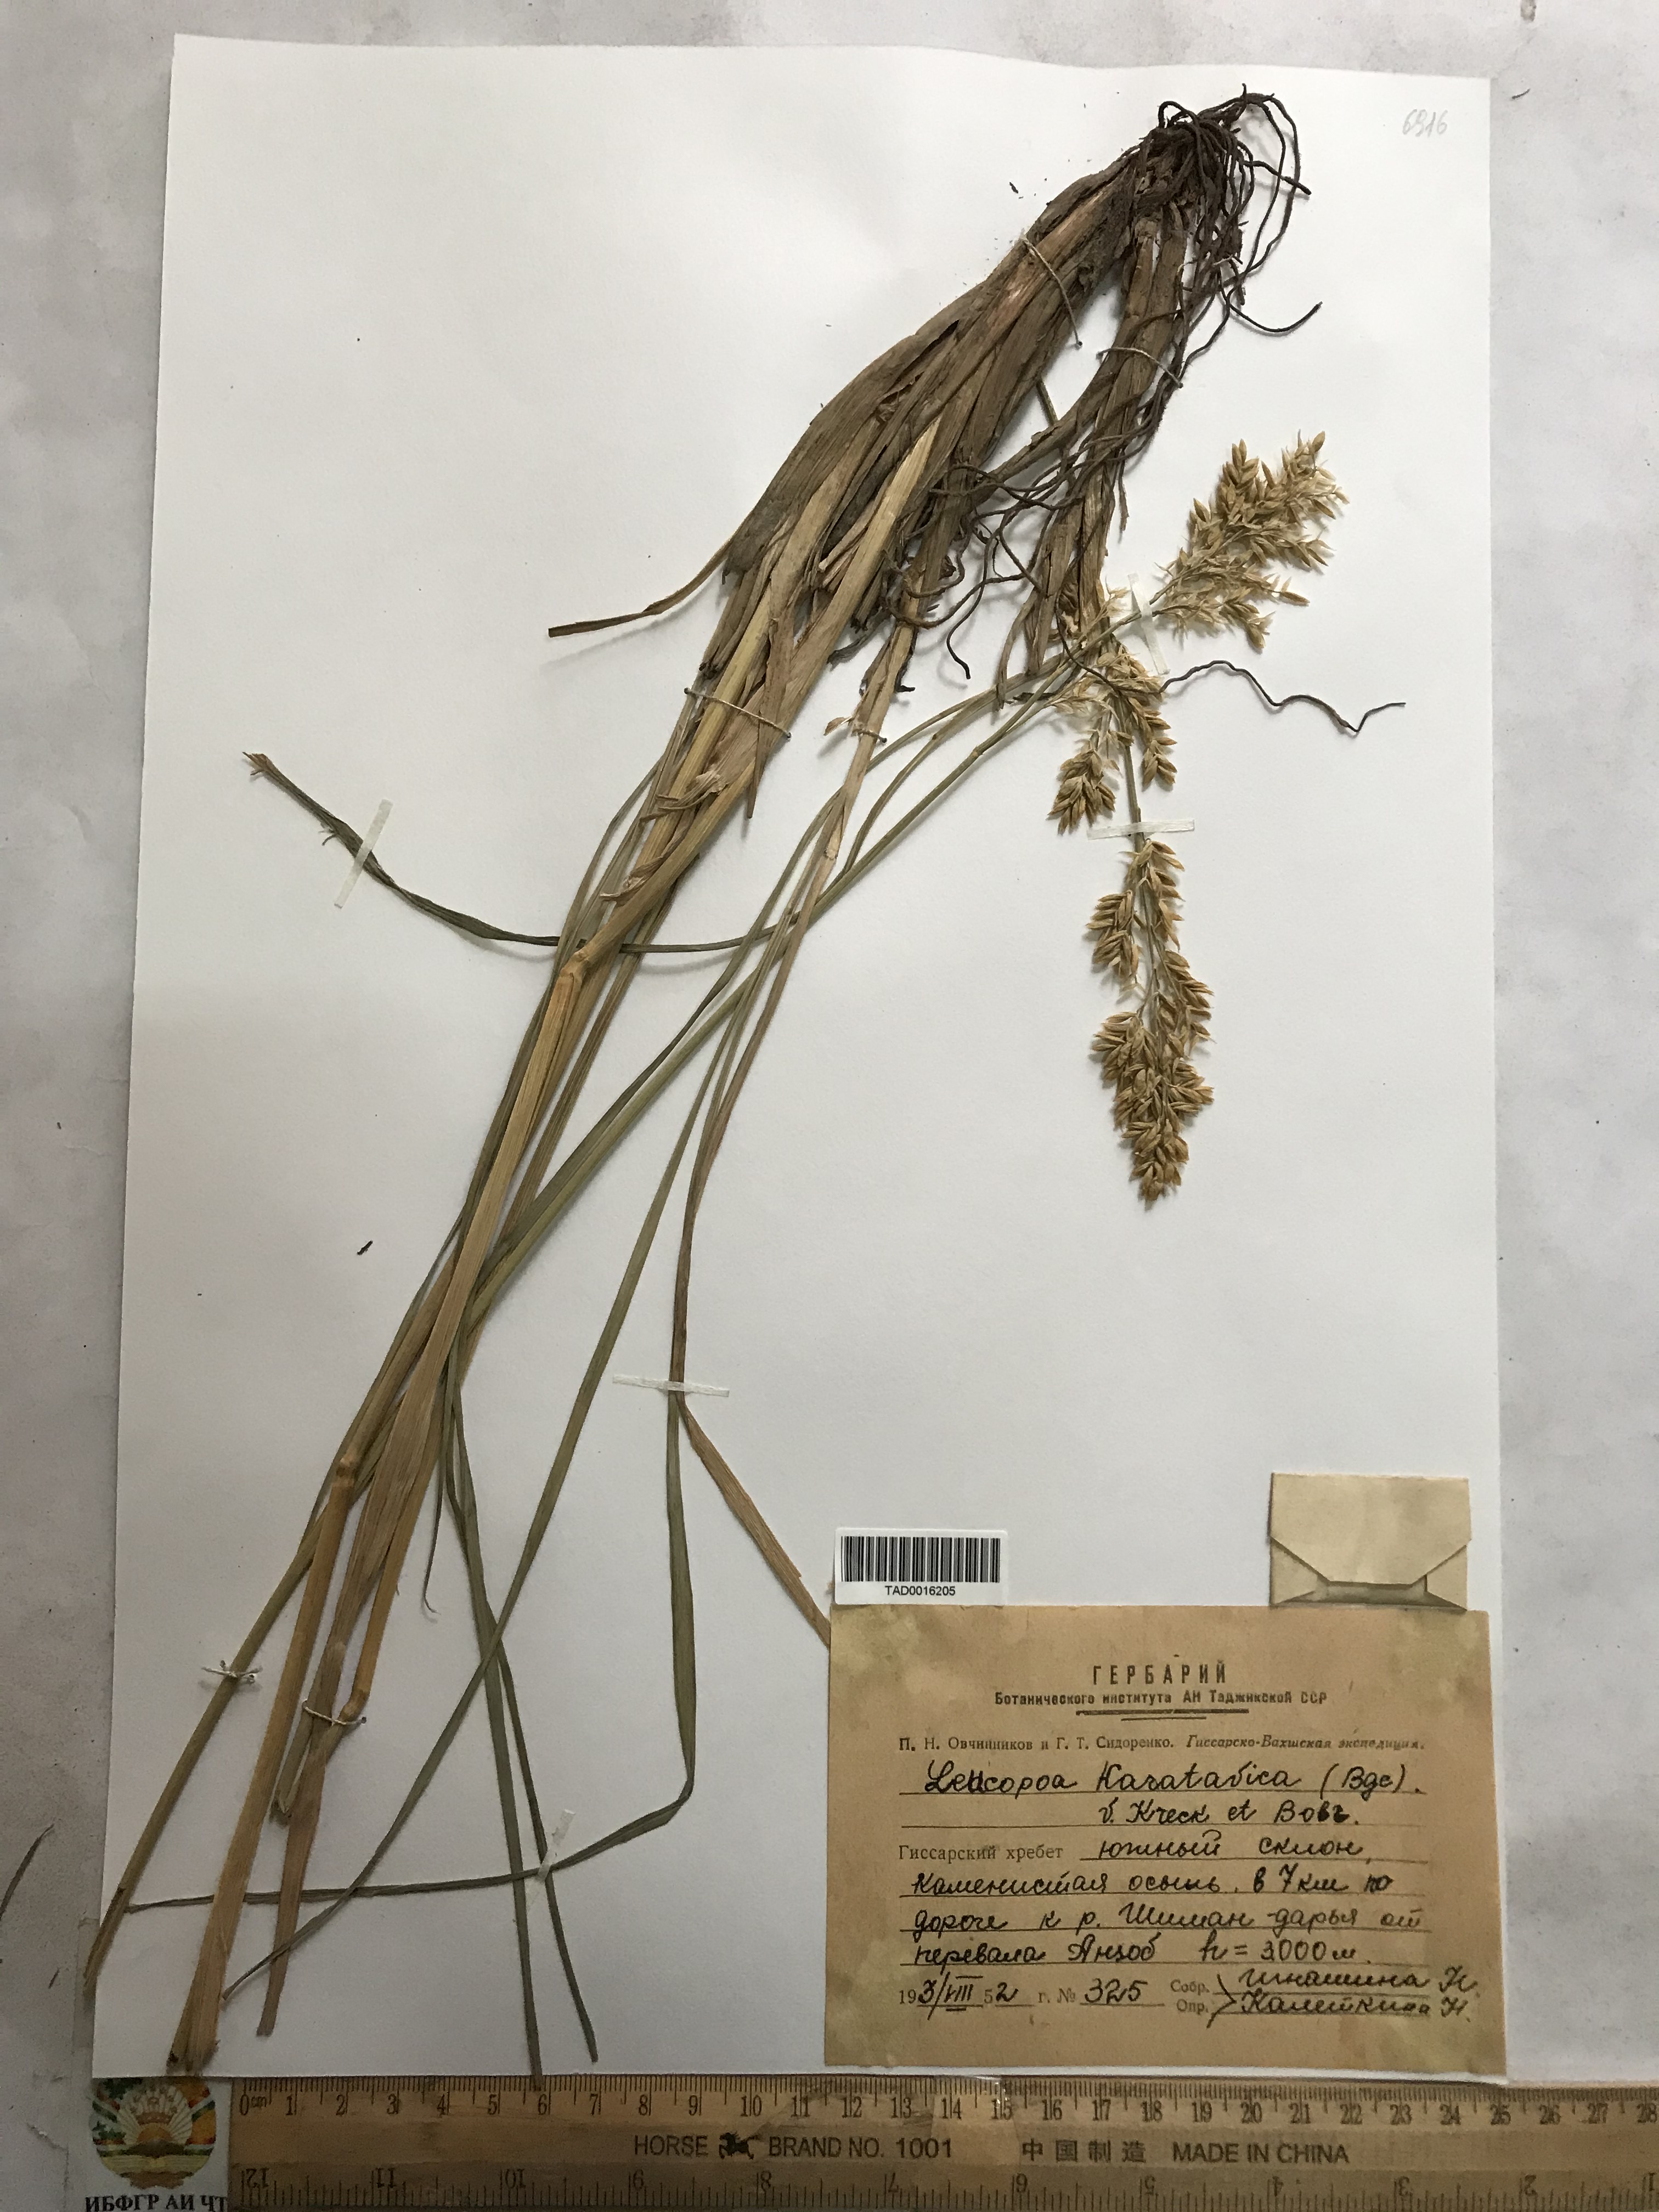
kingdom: Plantae
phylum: Tracheophyta
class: Liliopsida
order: Poales
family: Poaceae
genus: Festuca
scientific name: Festuca karatavica
